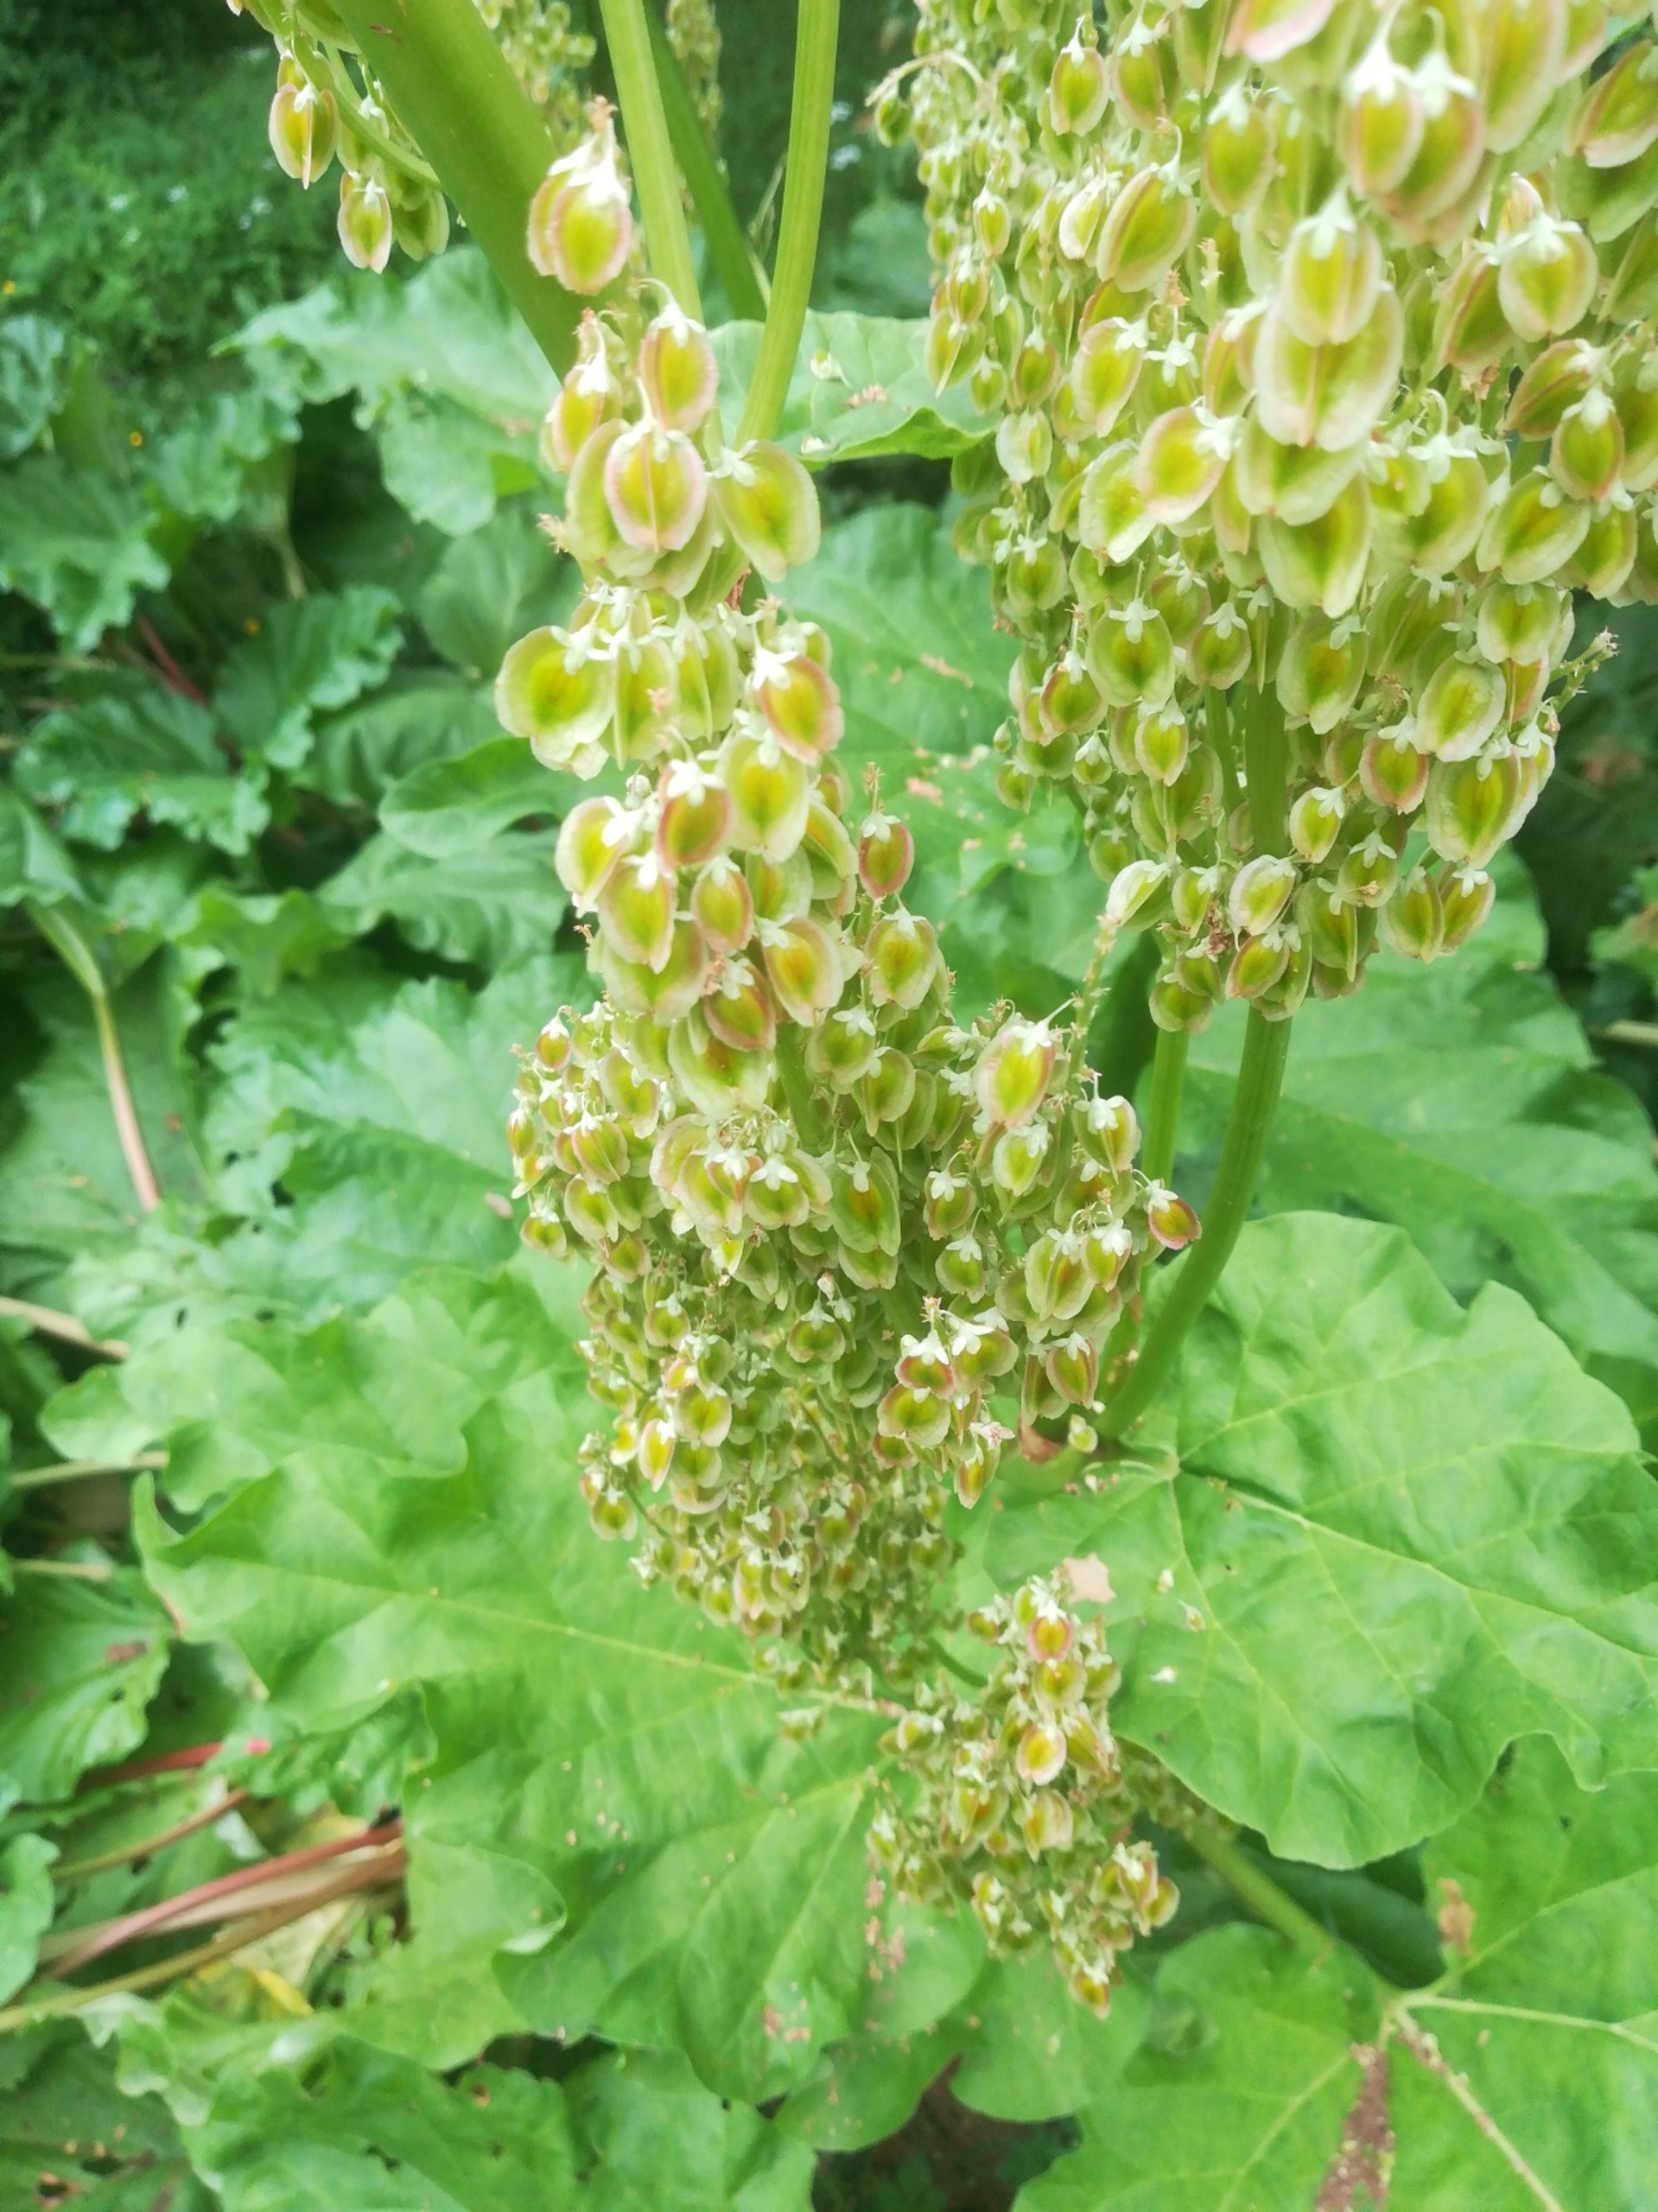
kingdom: Plantae
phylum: Tracheophyta
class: Magnoliopsida
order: Caryophyllales
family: Polygonaceae
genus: Rheum
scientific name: Rheum rhabarbarum
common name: Rabarber
